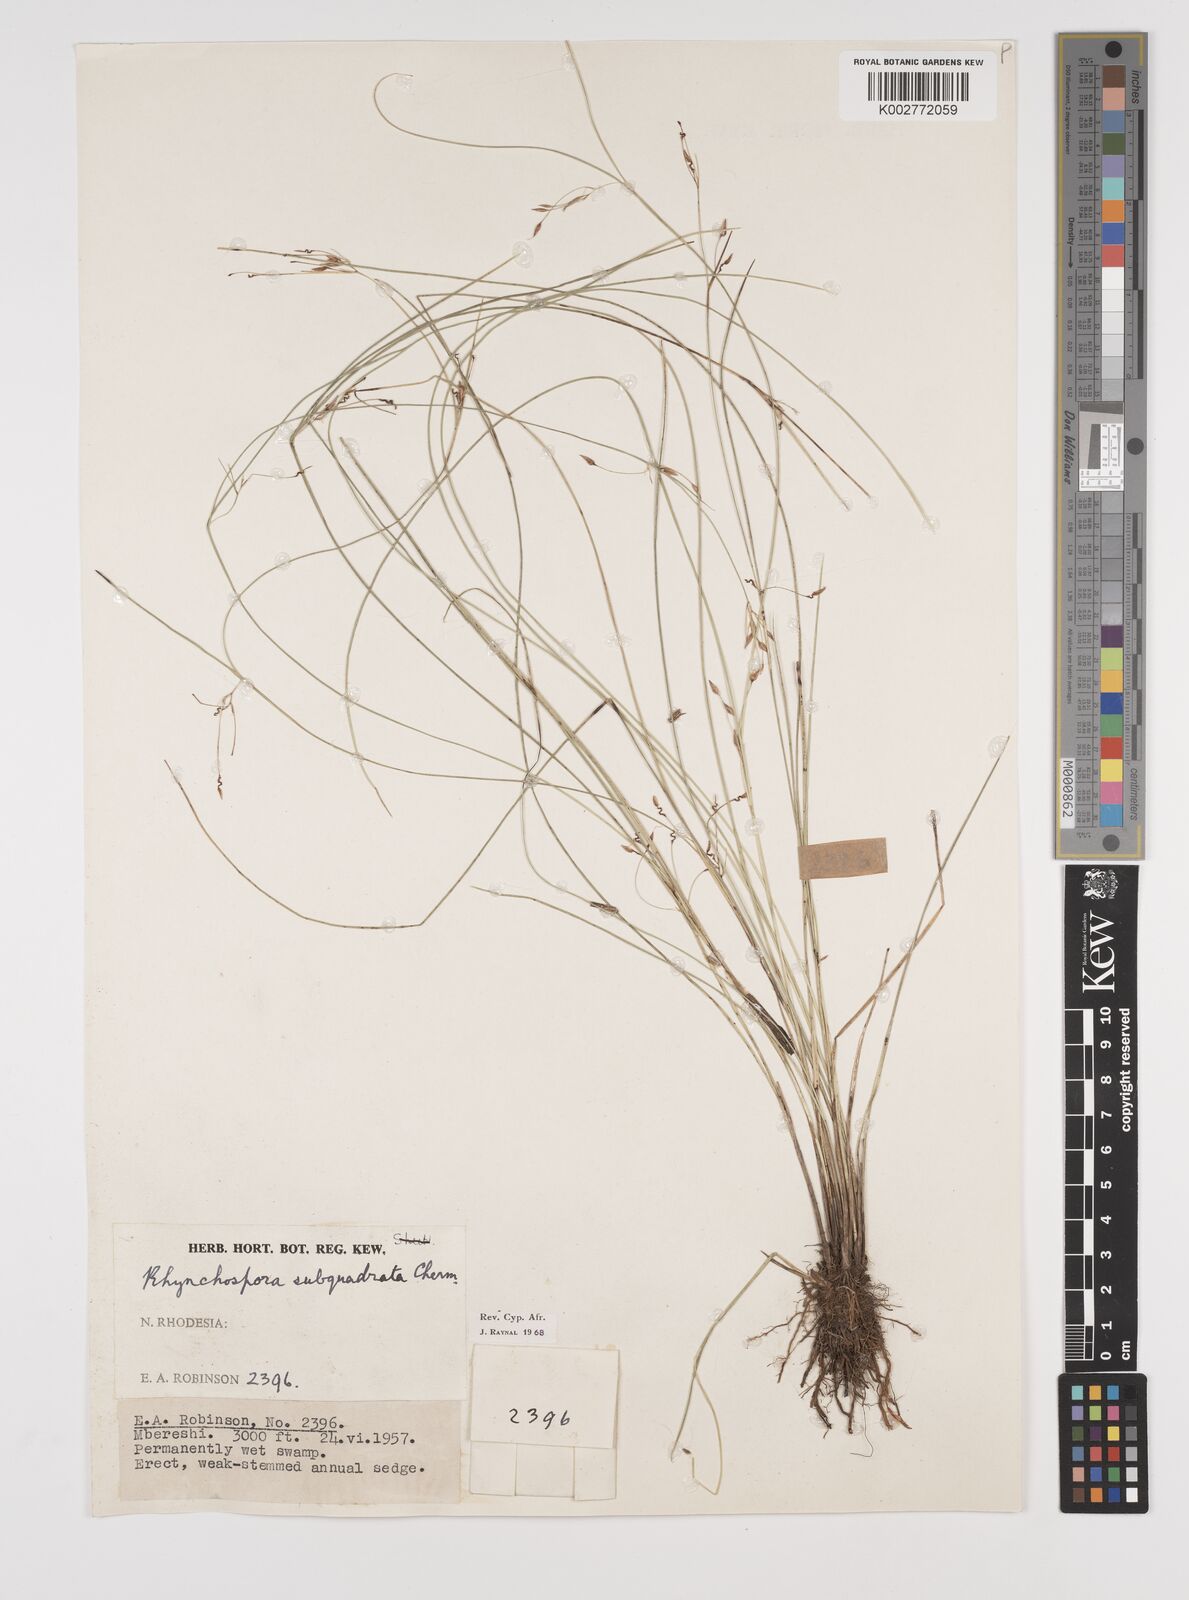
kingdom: Plantae
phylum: Tracheophyta
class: Liliopsida
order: Poales
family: Cyperaceae
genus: Rhynchospora
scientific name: Rhynchospora gracillima
